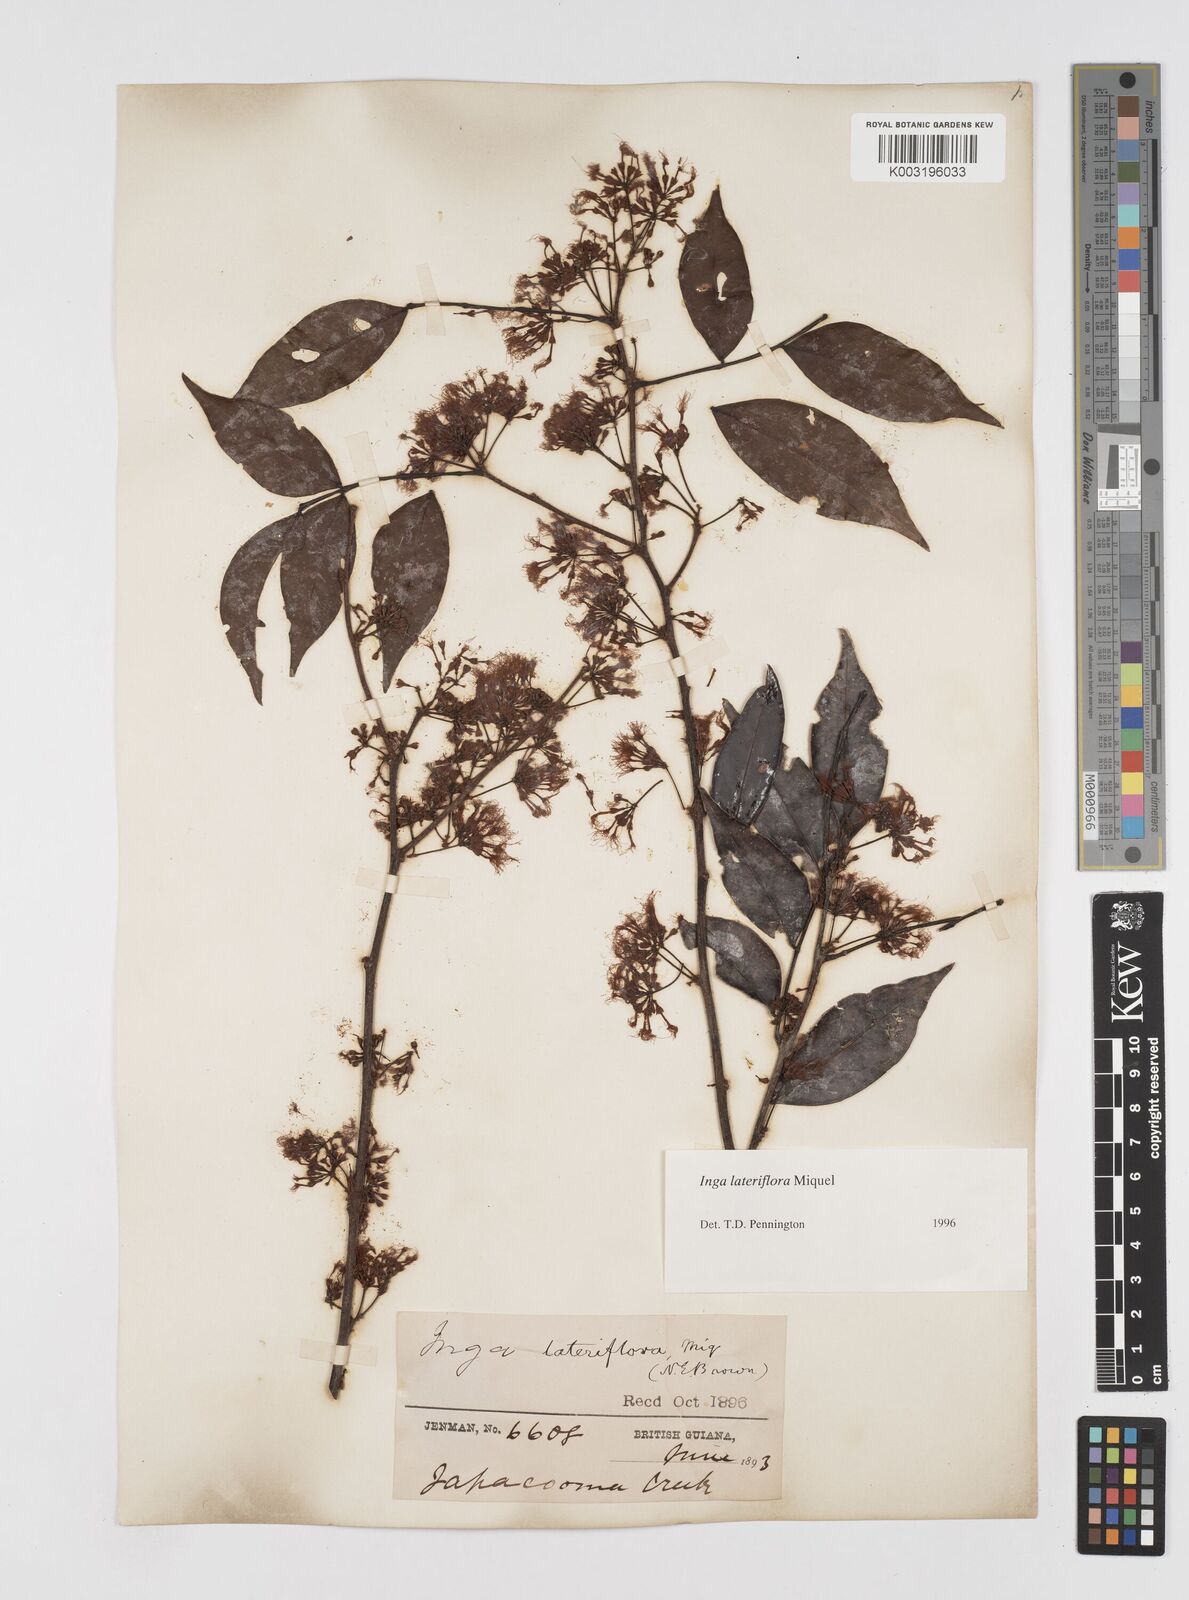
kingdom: Plantae
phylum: Tracheophyta
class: Magnoliopsida
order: Fabales
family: Fabaceae
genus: Inga
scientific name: Inga lateriflora
